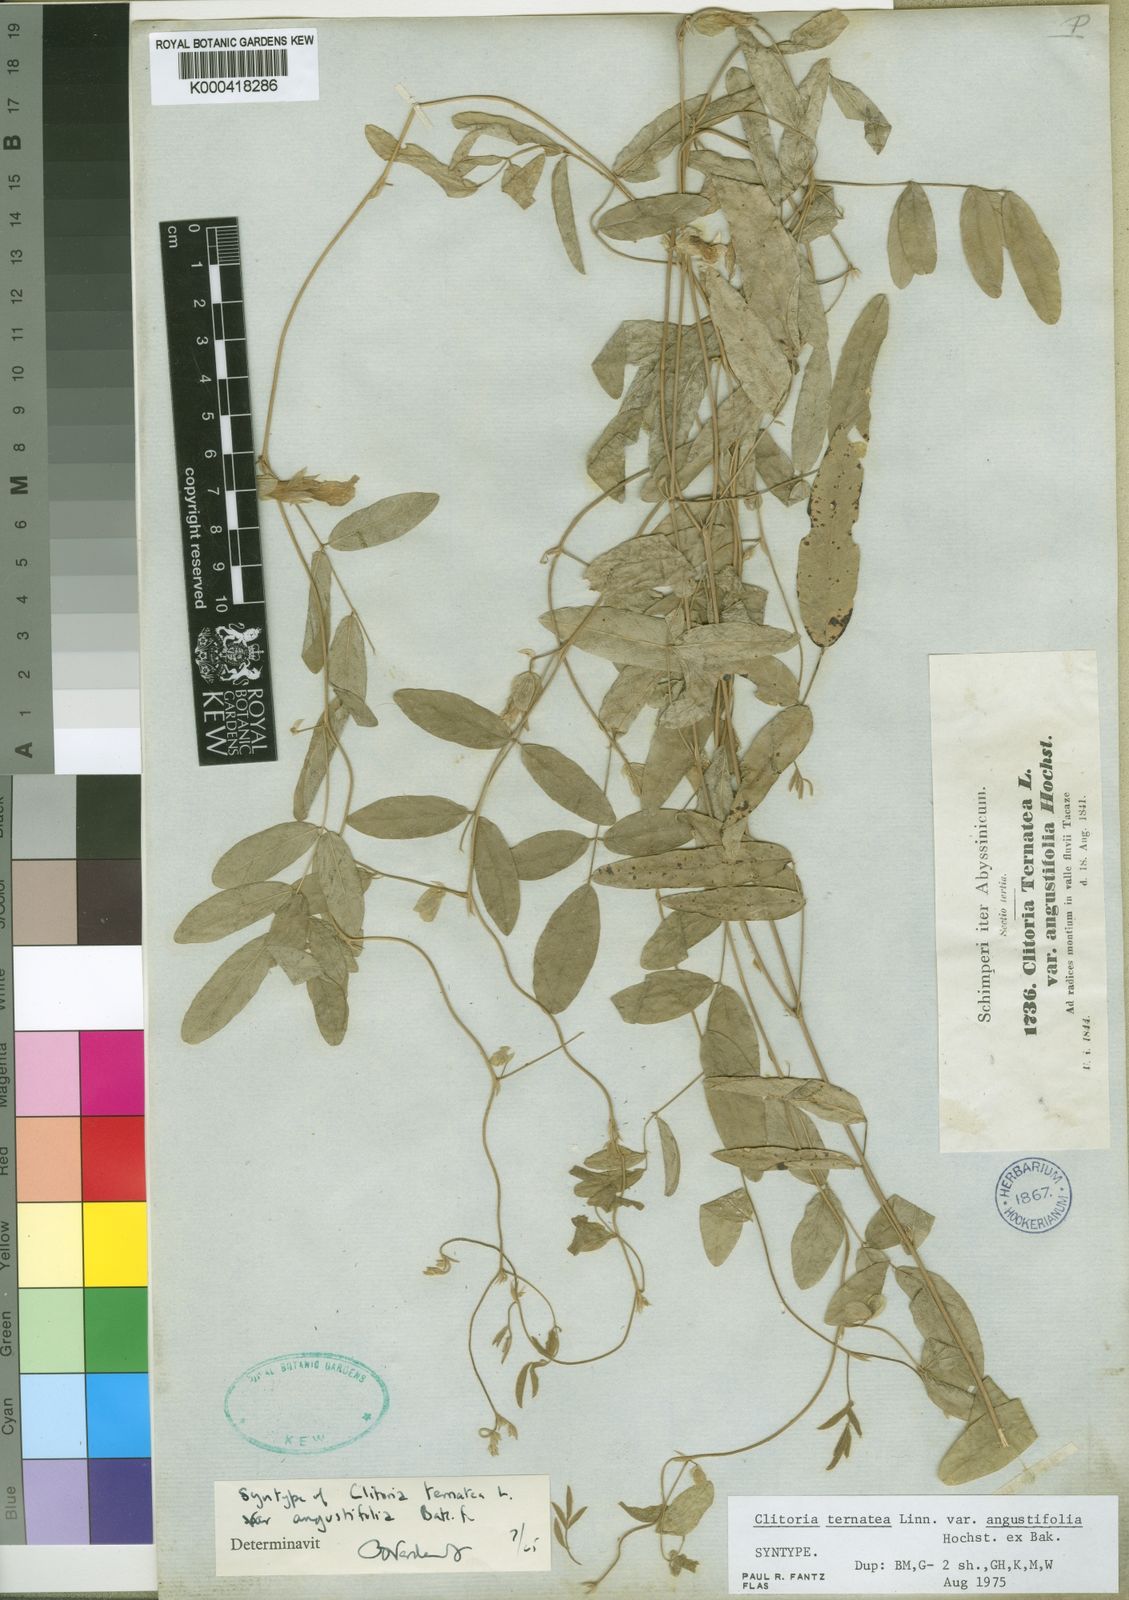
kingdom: Plantae
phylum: Tracheophyta
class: Magnoliopsida
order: Fabales
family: Fabaceae
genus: Clitoria
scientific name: Clitoria ternatea
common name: Asian pigeonwings
